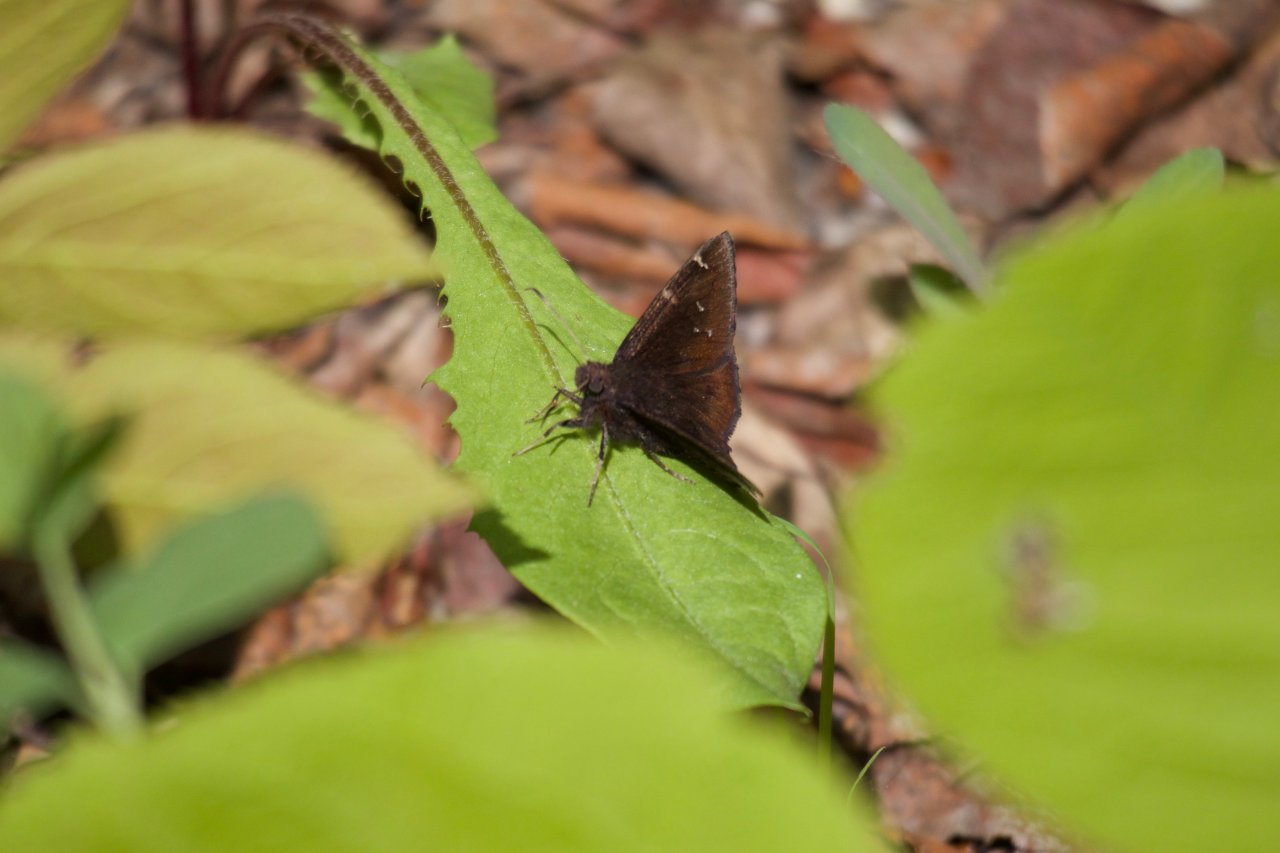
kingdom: Animalia
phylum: Arthropoda
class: Insecta
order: Lepidoptera
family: Hesperiidae
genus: Autochton
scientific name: Autochton
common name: Northern Cloudywing
